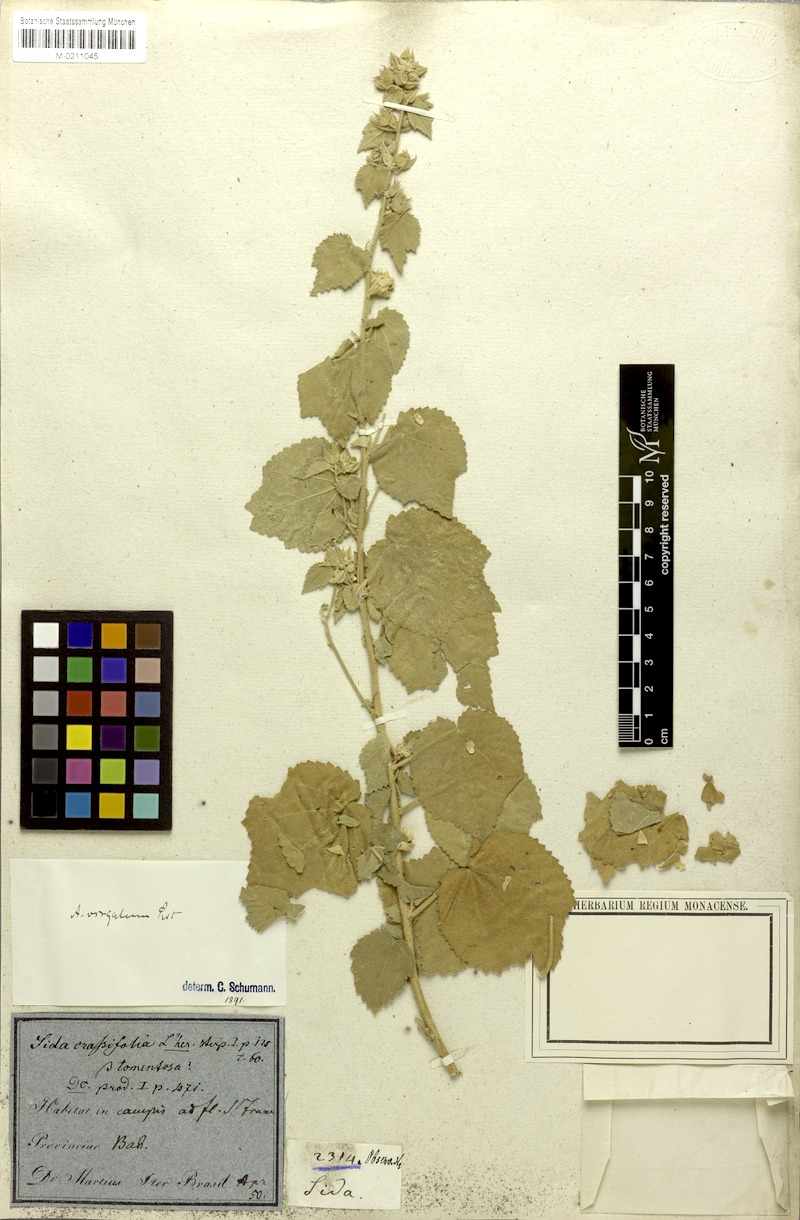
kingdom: Plantae
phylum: Tracheophyta
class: Magnoliopsida
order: Malvales
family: Malvaceae
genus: Pseudabutilon
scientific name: Pseudabutilon virgatum
